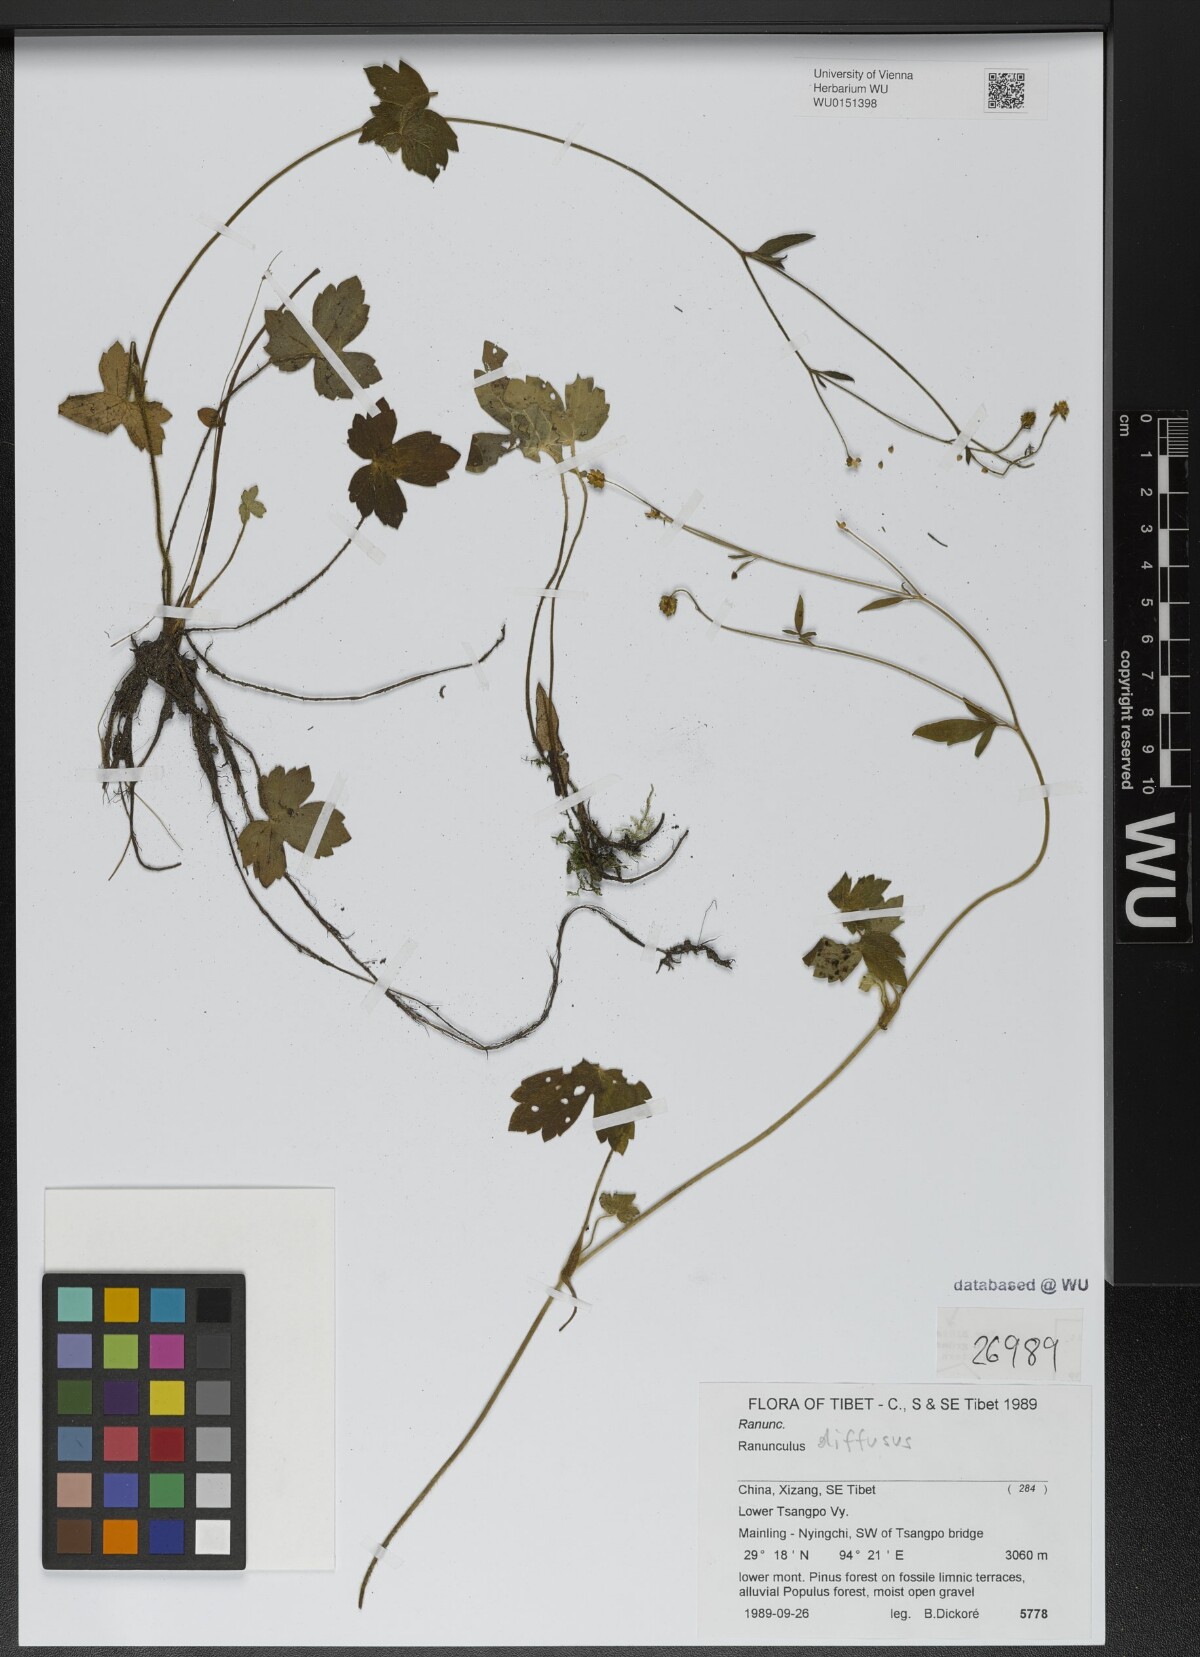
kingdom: Plantae
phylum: Tracheophyta
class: Magnoliopsida
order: Ranunculales
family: Ranunculaceae
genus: Ranunculus
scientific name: Ranunculus diffusus
